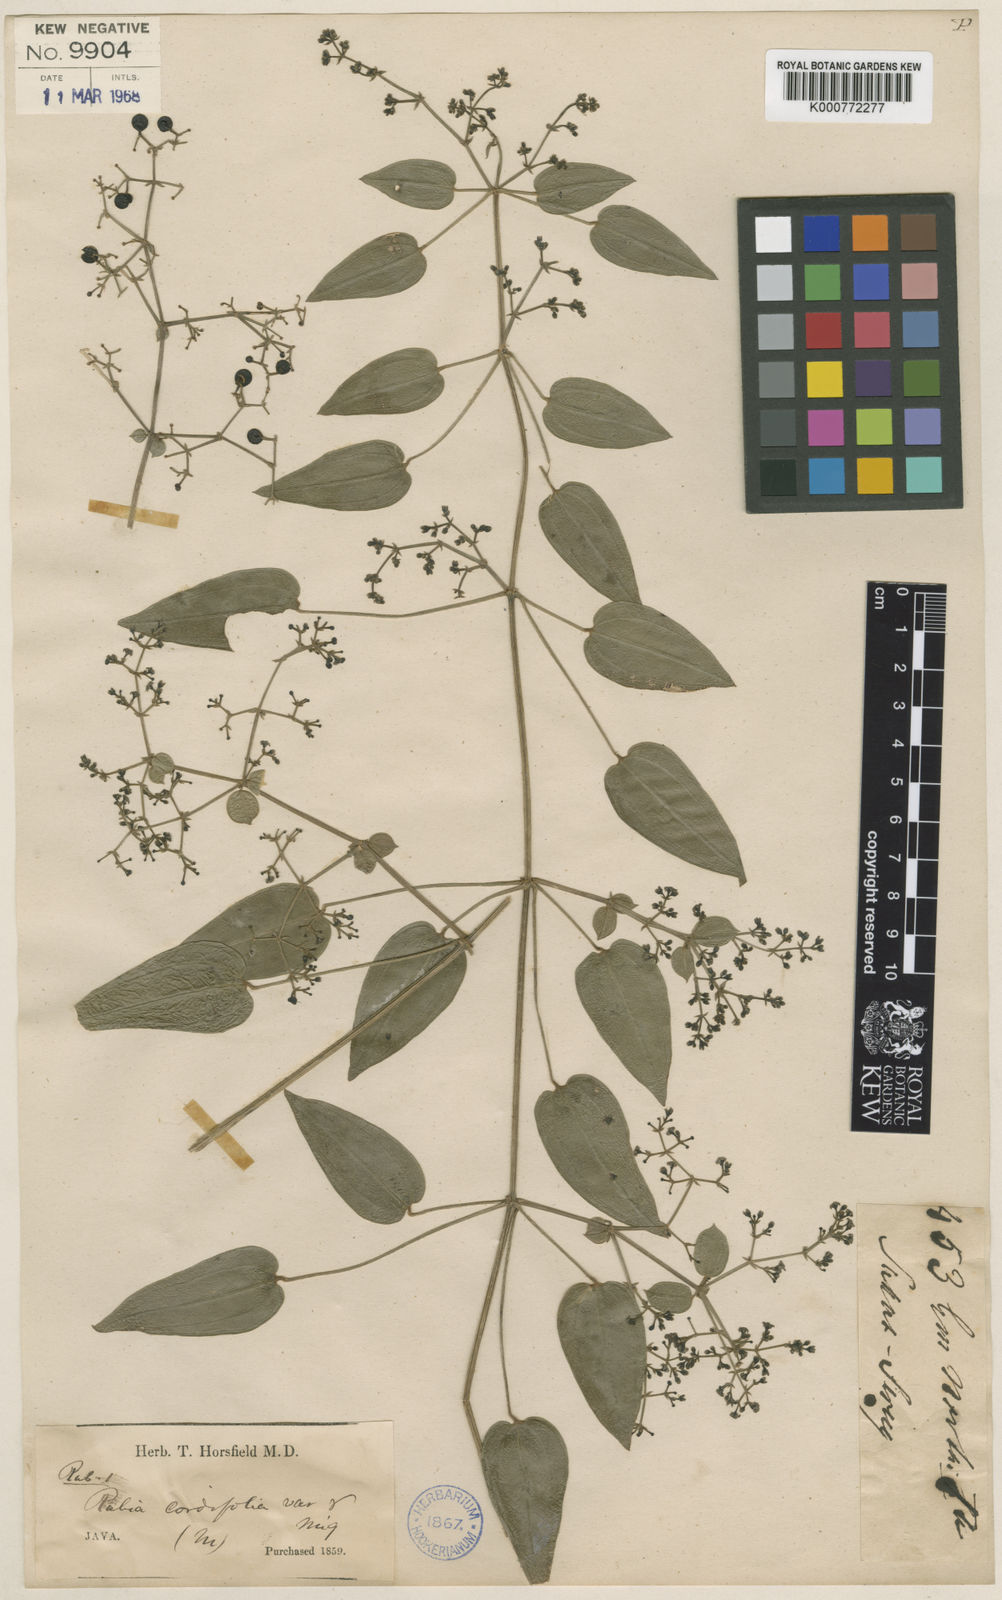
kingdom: Plantae
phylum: Tracheophyta
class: Magnoliopsida
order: Gentianales
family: Rubiaceae
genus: Rubia
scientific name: Rubia cordifolia
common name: Indian madder
